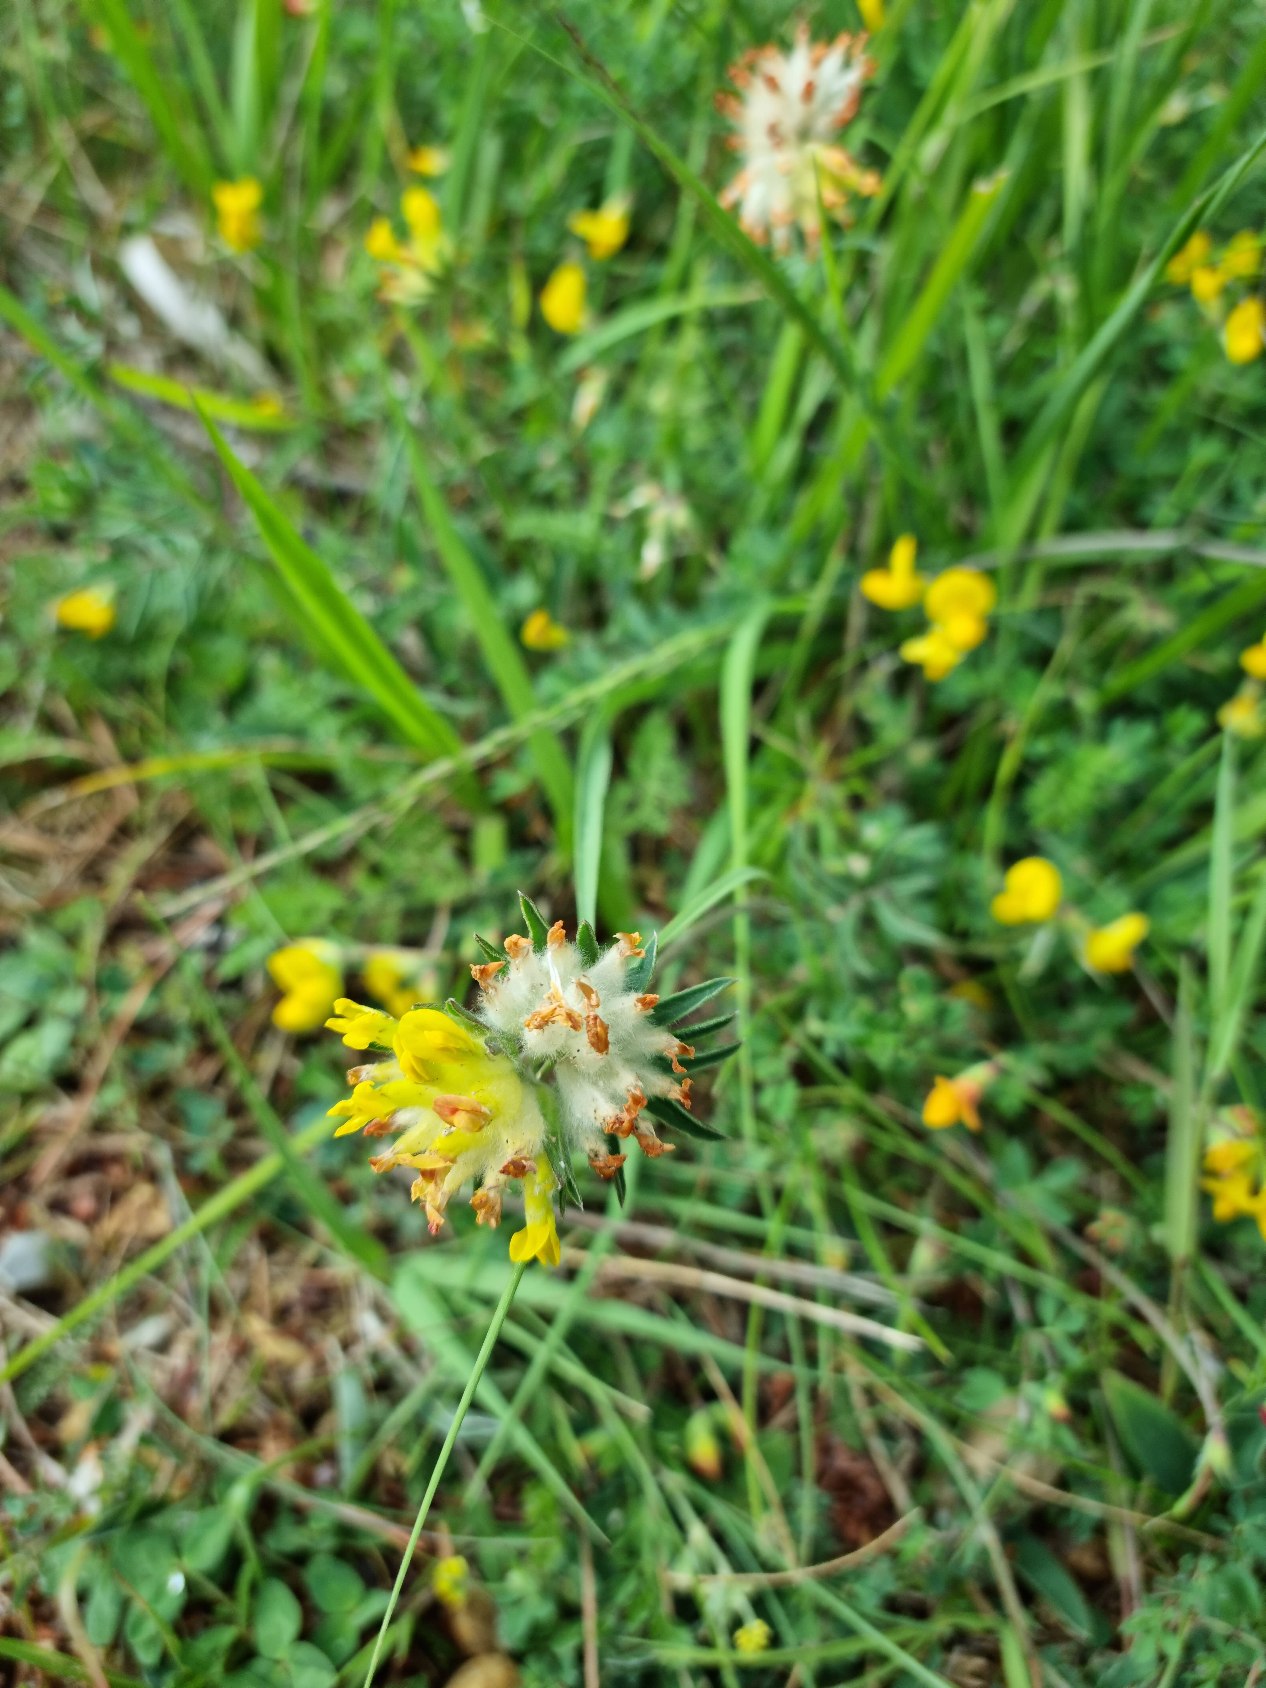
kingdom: Plantae
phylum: Tracheophyta
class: Magnoliopsida
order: Fabales
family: Fabaceae
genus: Anthyllis
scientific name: Anthyllis vulneraria
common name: Rundbælg
